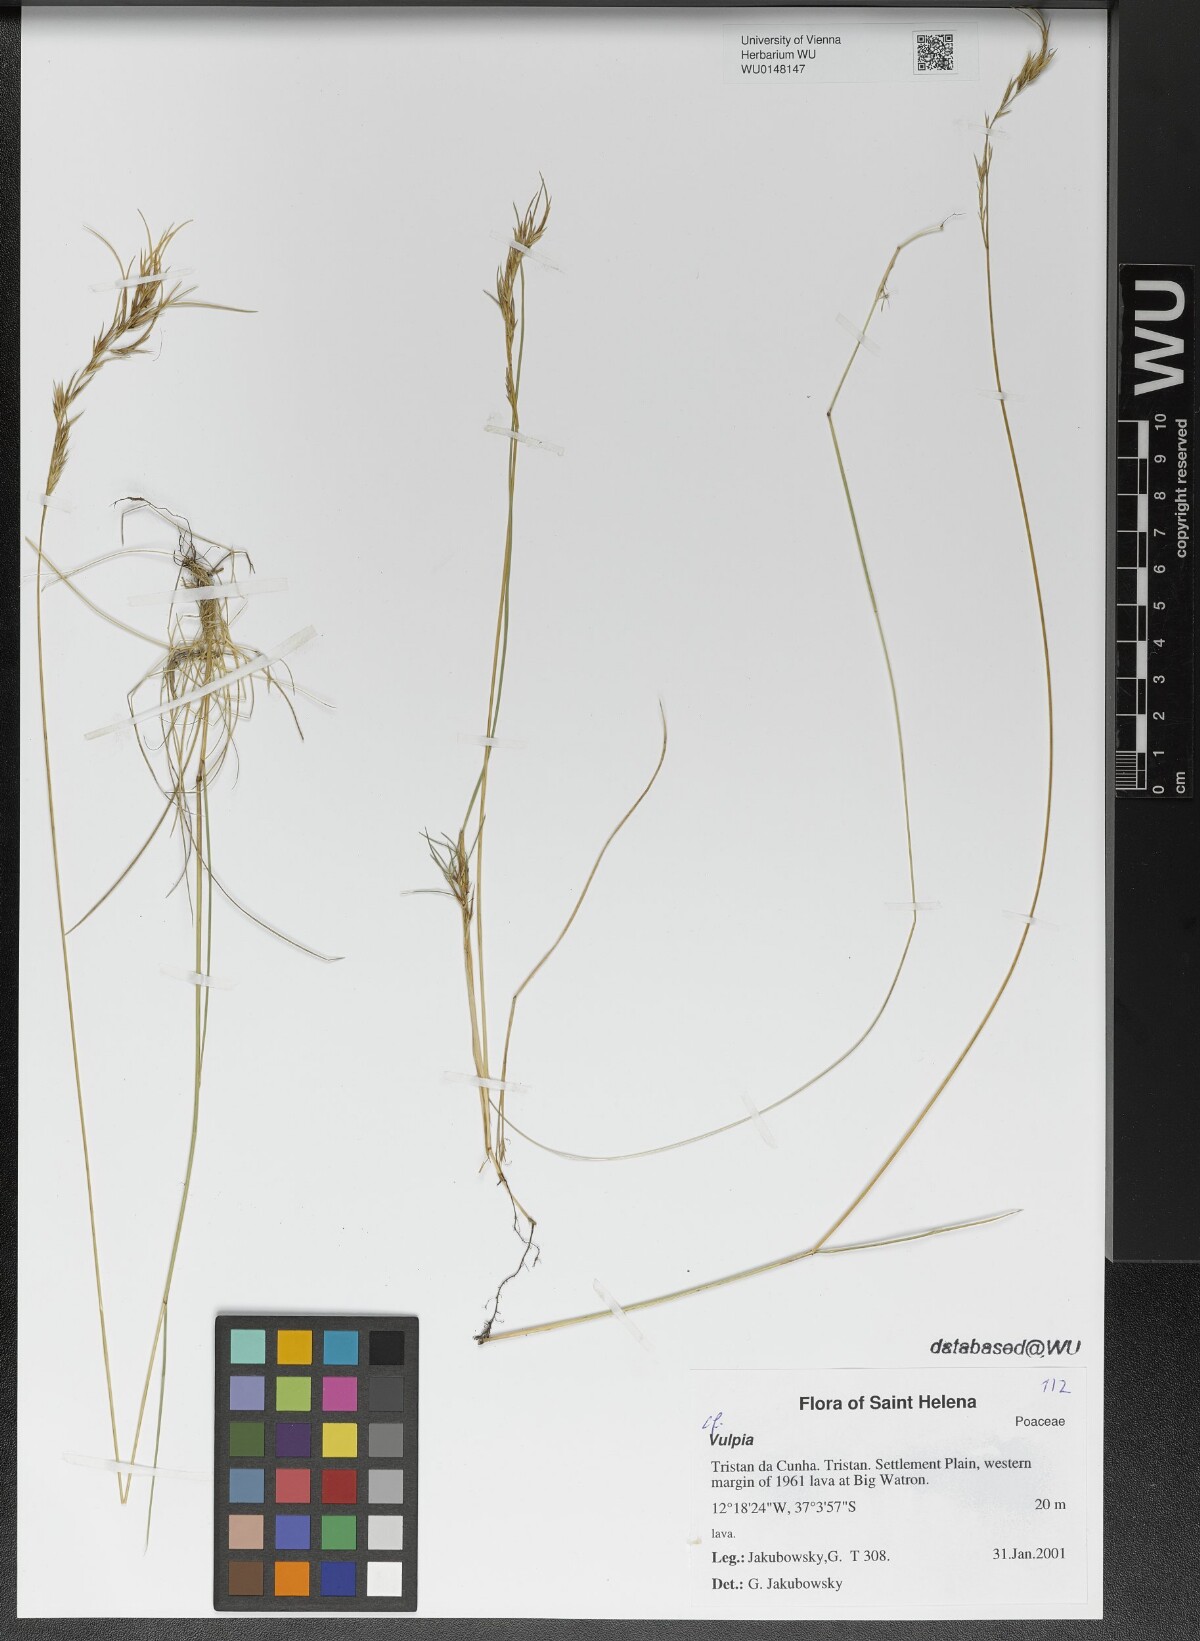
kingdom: Plantae
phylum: Tracheophyta
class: Liliopsida
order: Poales
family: Poaceae
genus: Festuca
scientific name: Festuca
